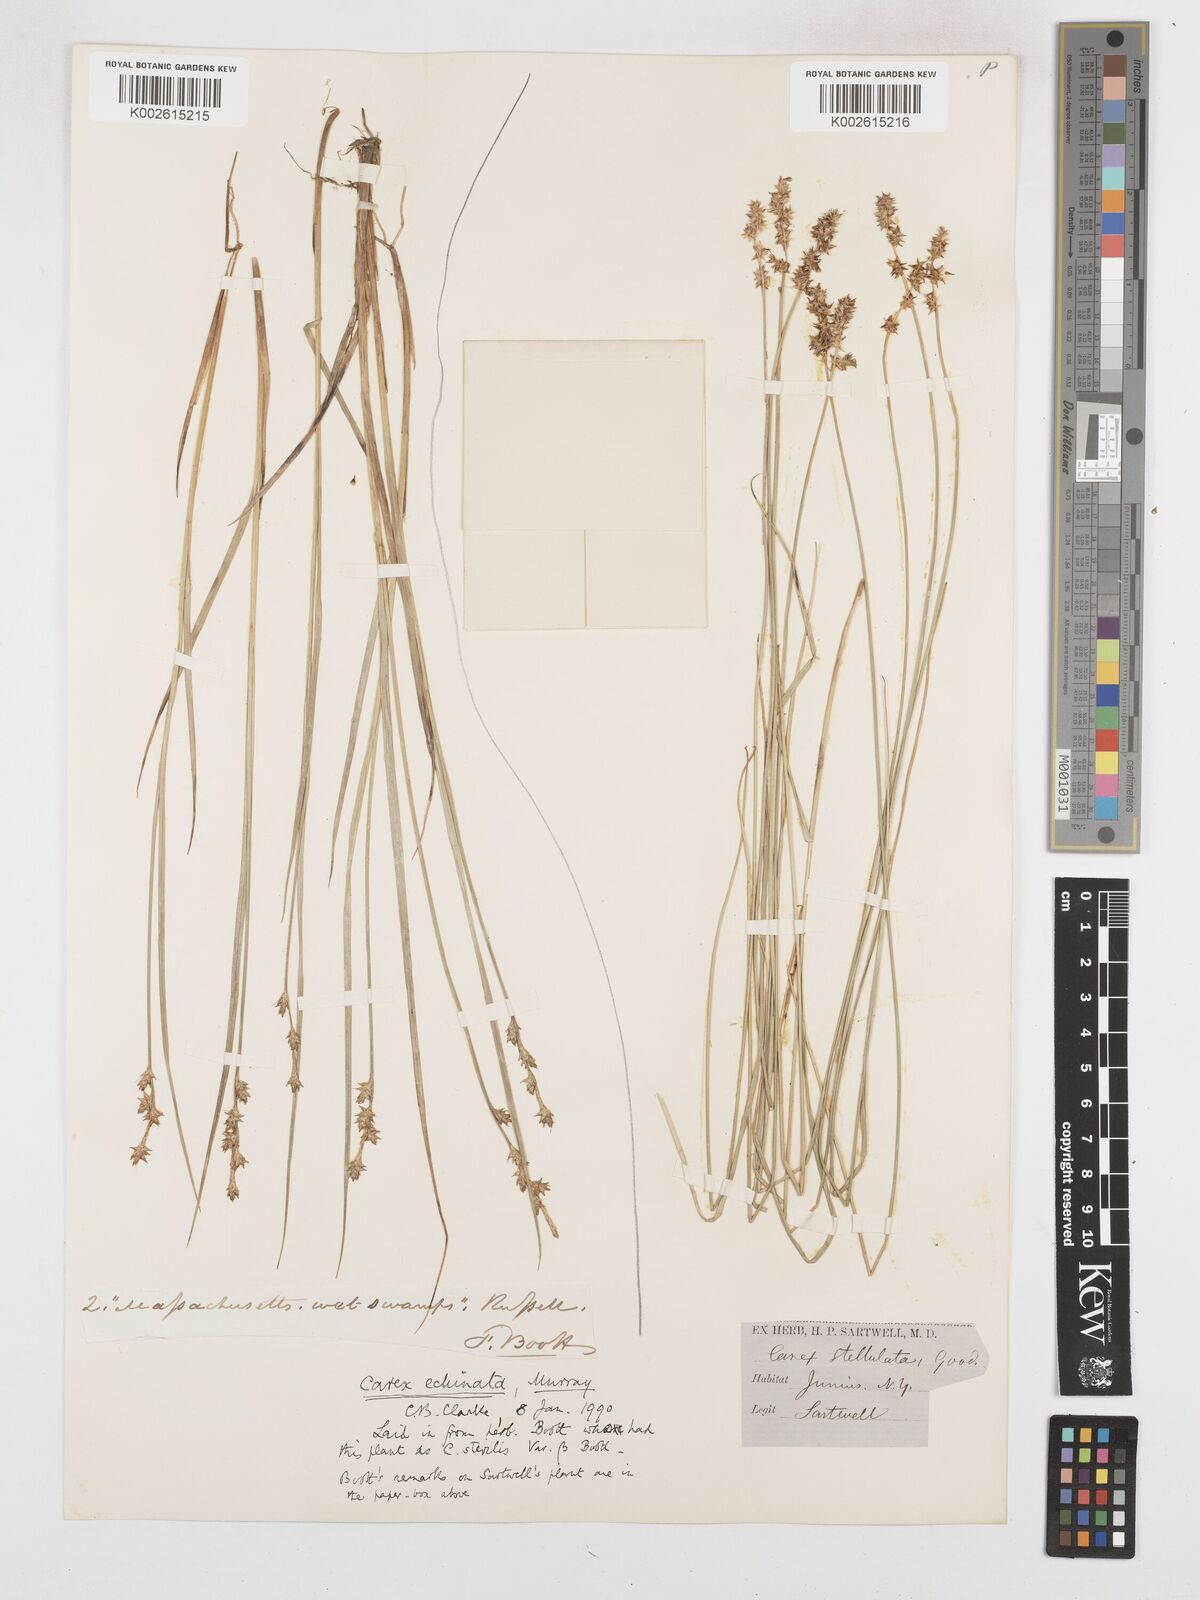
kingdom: Plantae
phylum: Tracheophyta
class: Liliopsida
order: Poales
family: Cyperaceae
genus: Carex
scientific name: Carex echinata
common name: Star sedge
